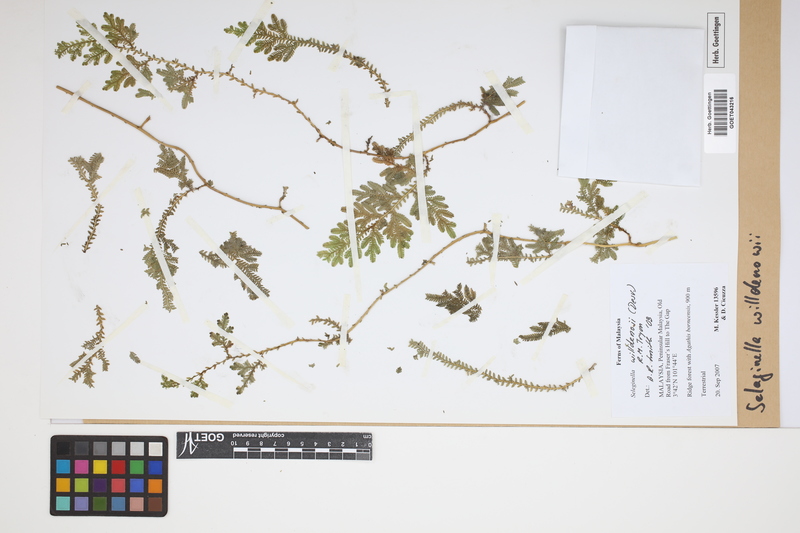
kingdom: Plantae
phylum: Tracheophyta
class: Lycopodiopsida
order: Selaginellales
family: Selaginellaceae
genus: Selaginella
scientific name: Selaginella willdenowii
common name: Willdenow's spikemoss
